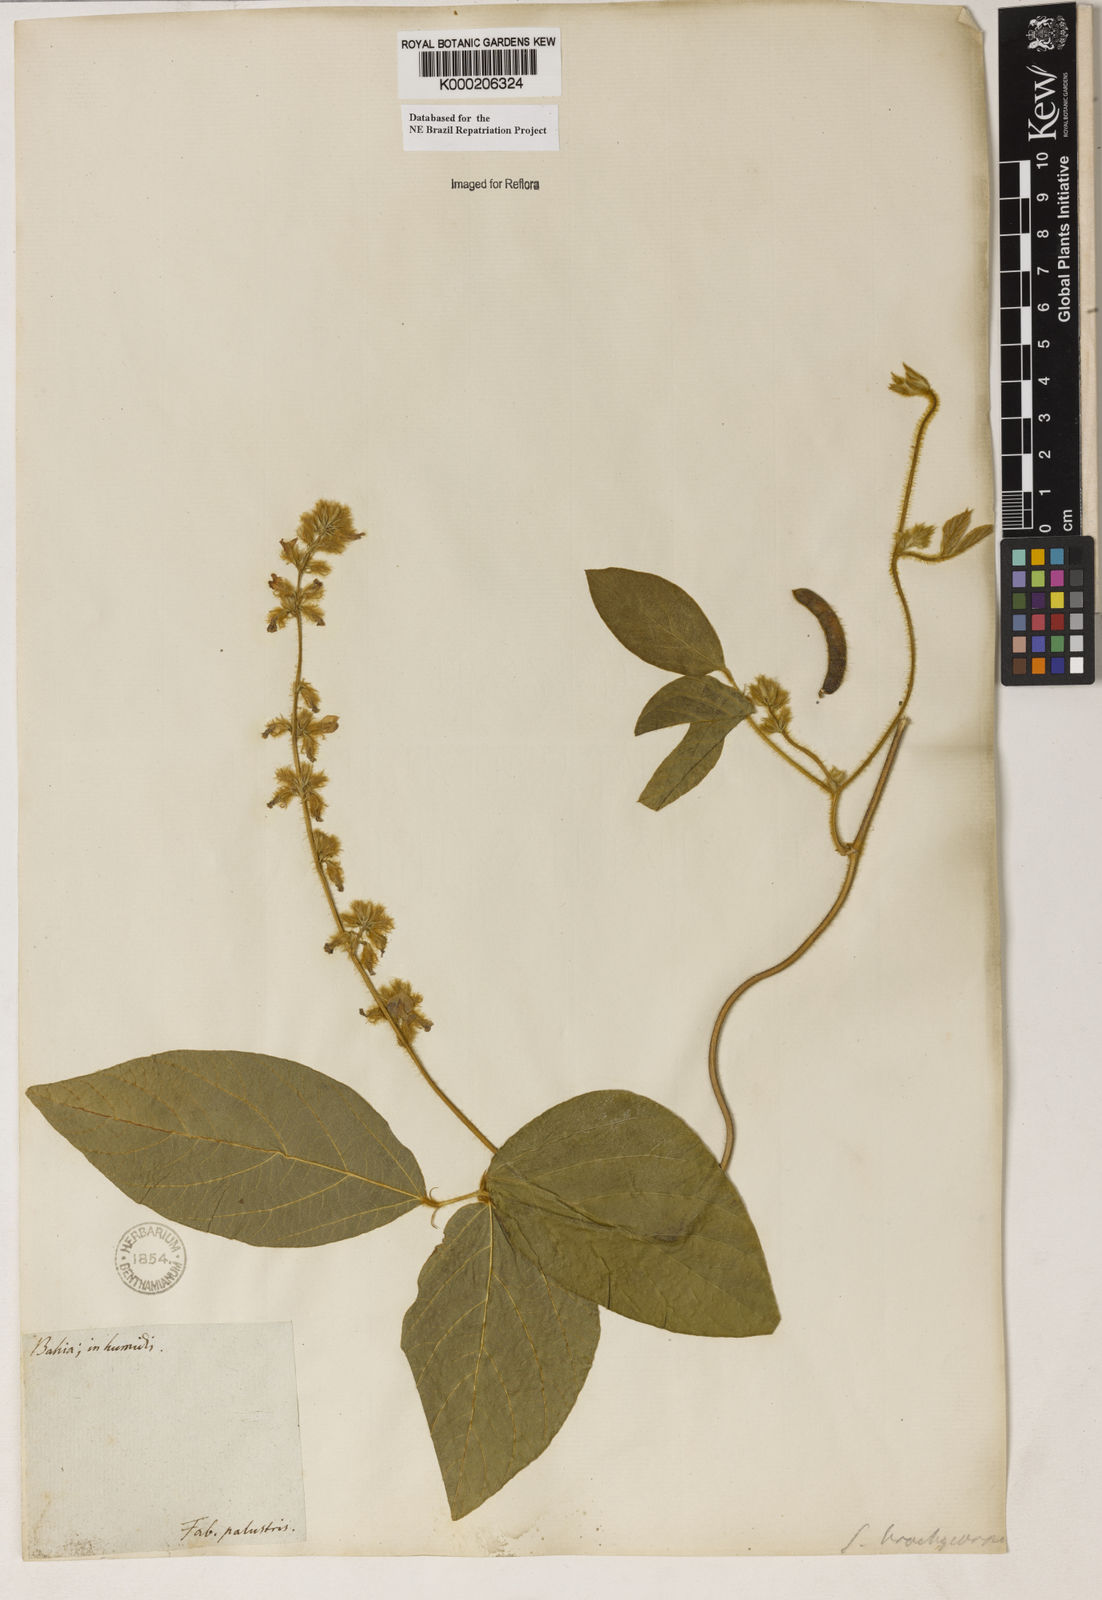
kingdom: Plantae
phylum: Tracheophyta
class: Magnoliopsida
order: Fabales
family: Fabaceae
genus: Calopogonium
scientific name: Calopogonium mucunoides
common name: Calopo
